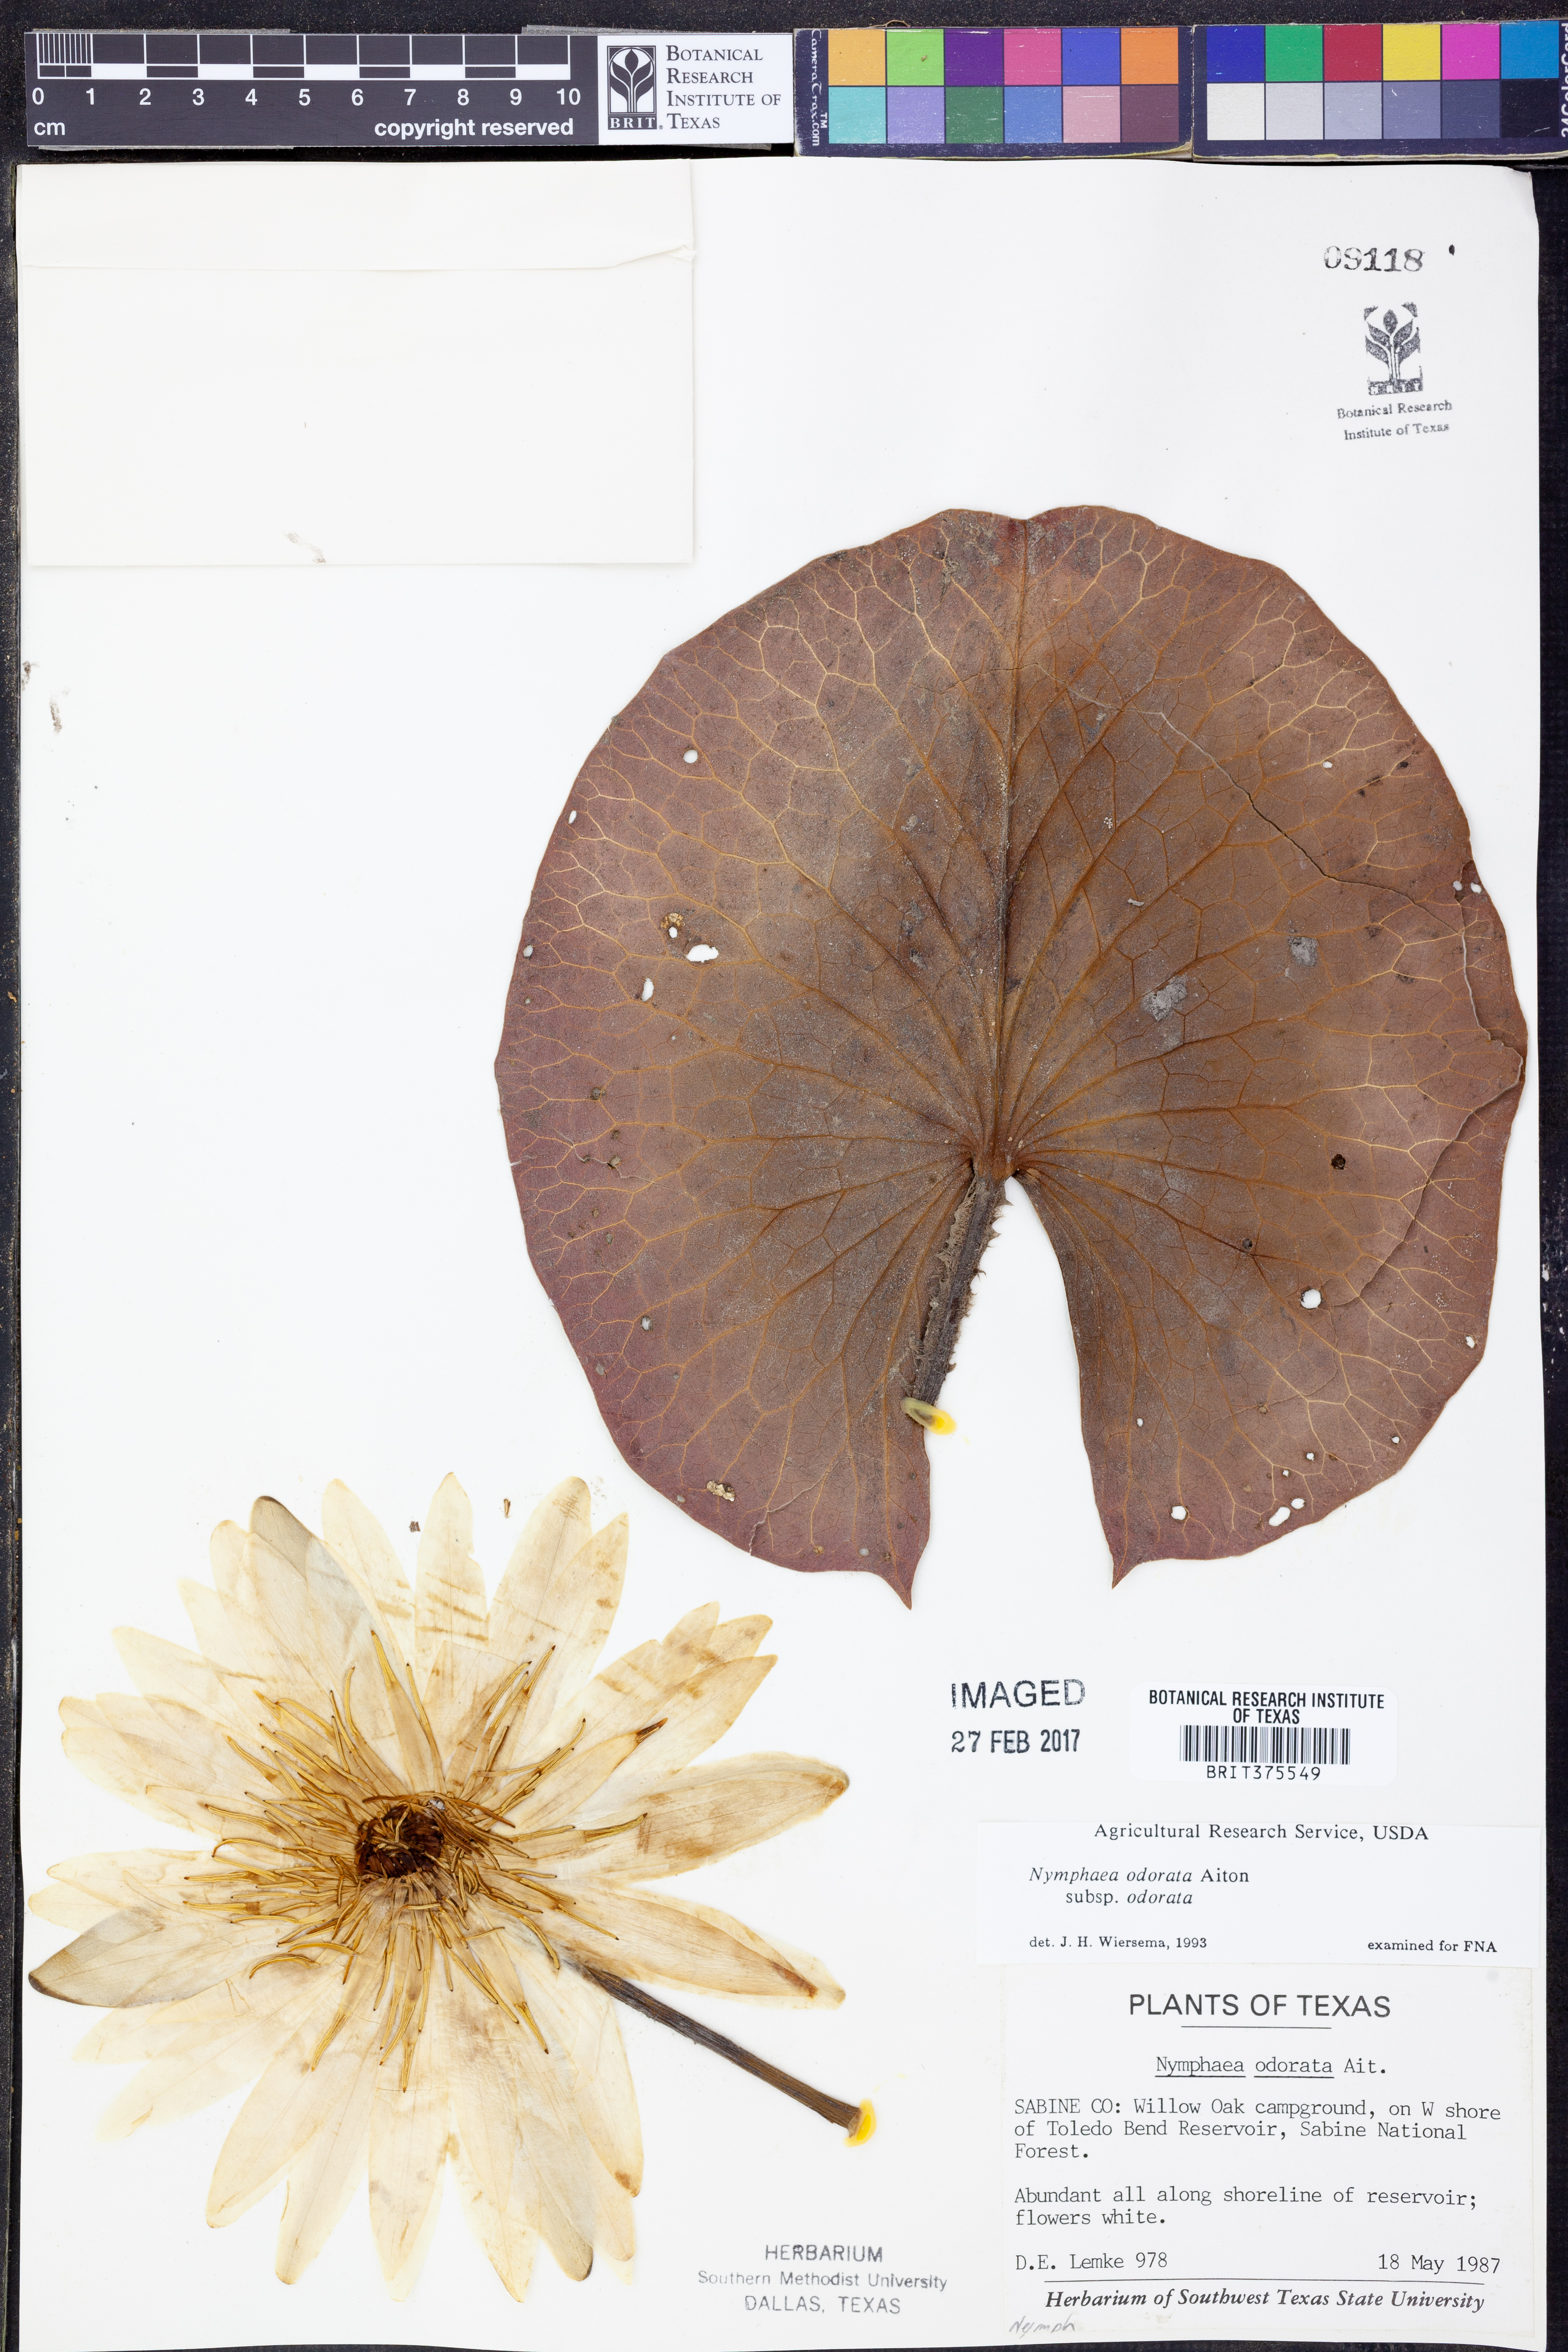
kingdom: Plantae
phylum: Tracheophyta
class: Magnoliopsida
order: Nymphaeales
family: Nymphaeaceae
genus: Nymphaea
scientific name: Nymphaea odorata
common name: Fragrant water-lily
